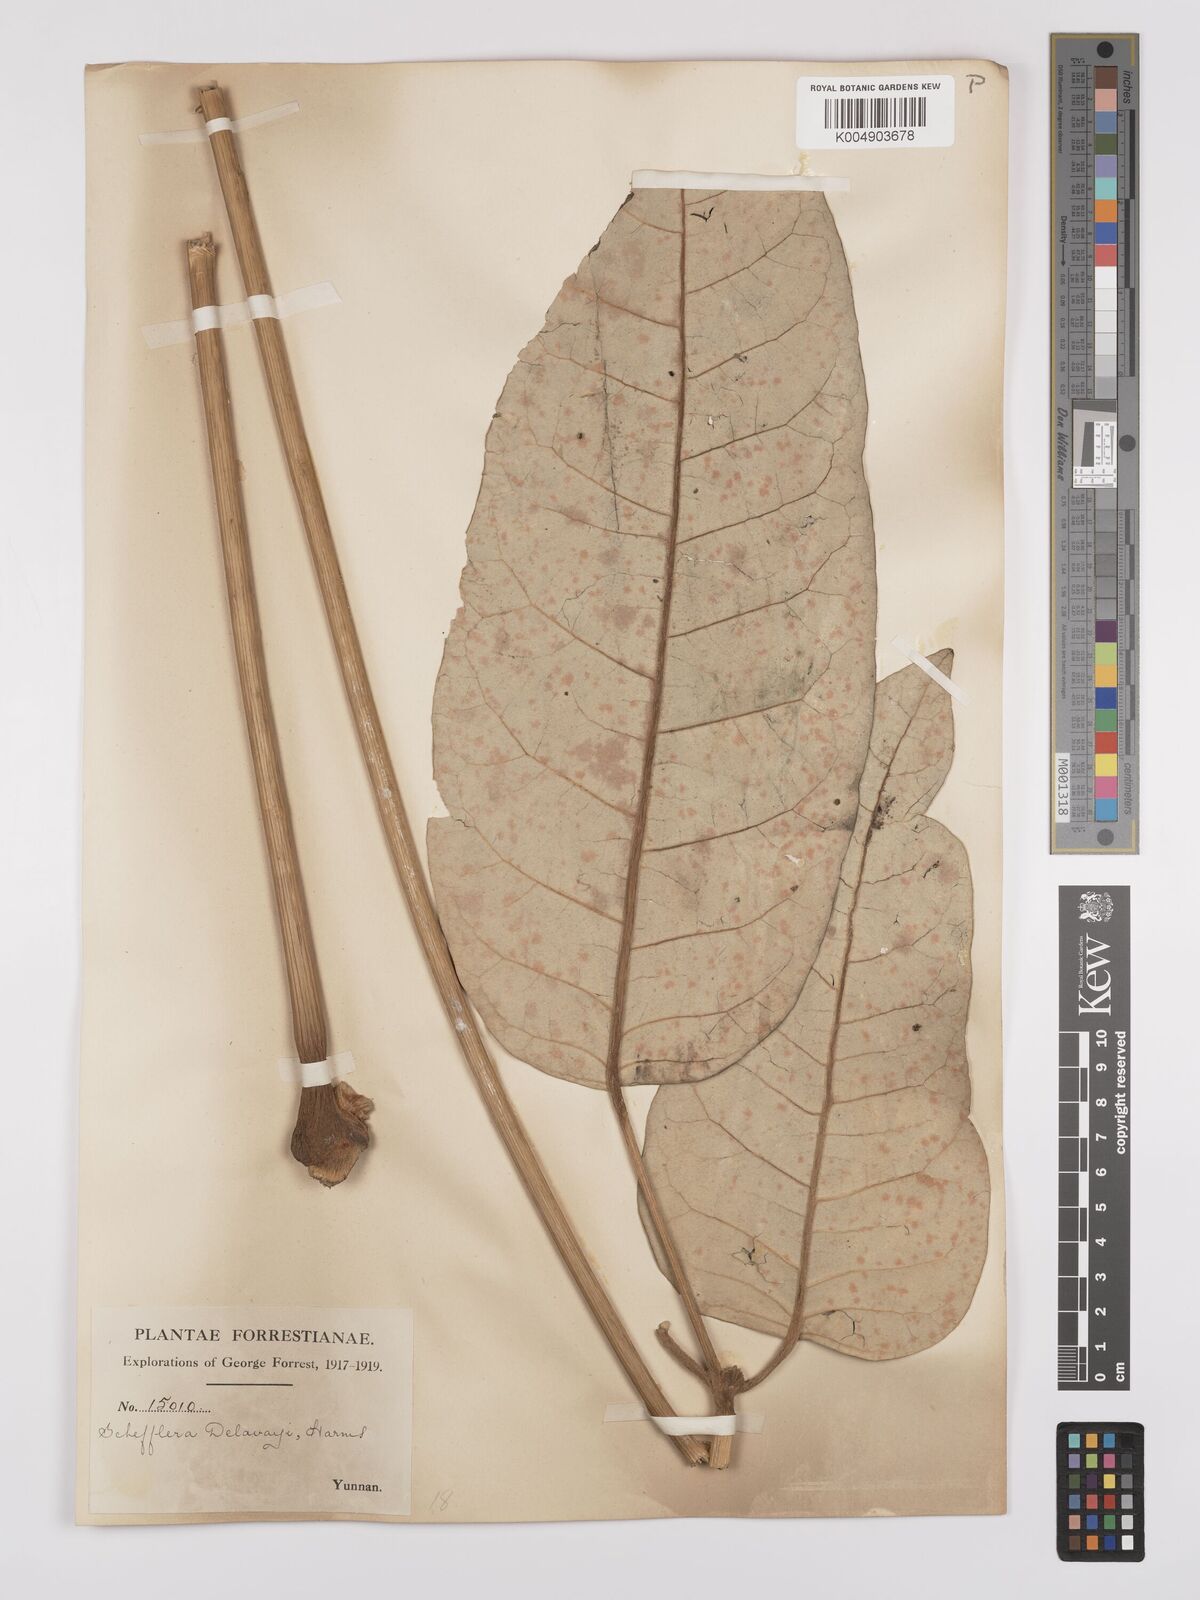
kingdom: Plantae
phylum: Tracheophyta
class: Magnoliopsida
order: Apiales
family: Araliaceae
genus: Heptapleurum
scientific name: Heptapleurum delavayi
